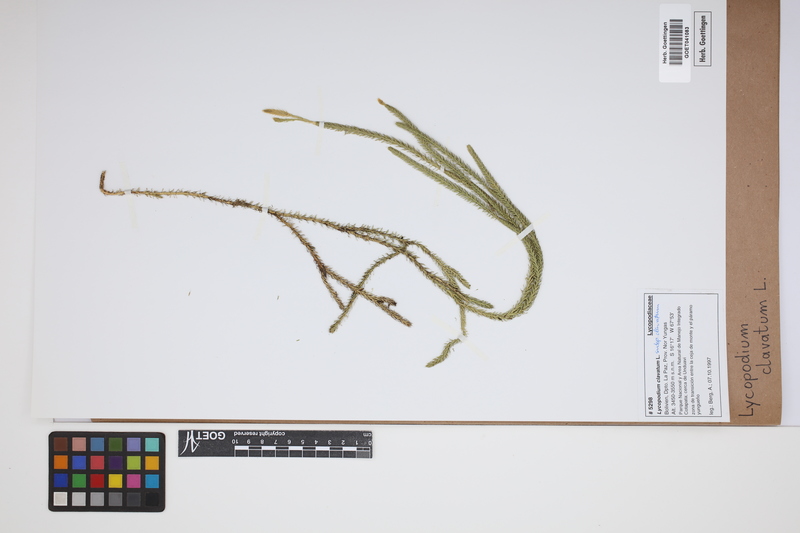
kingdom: Plantae
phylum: Tracheophyta
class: Lycopodiopsida
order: Lycopodiales
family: Lycopodiaceae
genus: Lycopodium
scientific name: Lycopodium clavatum
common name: Stag's-horn clubmoss
